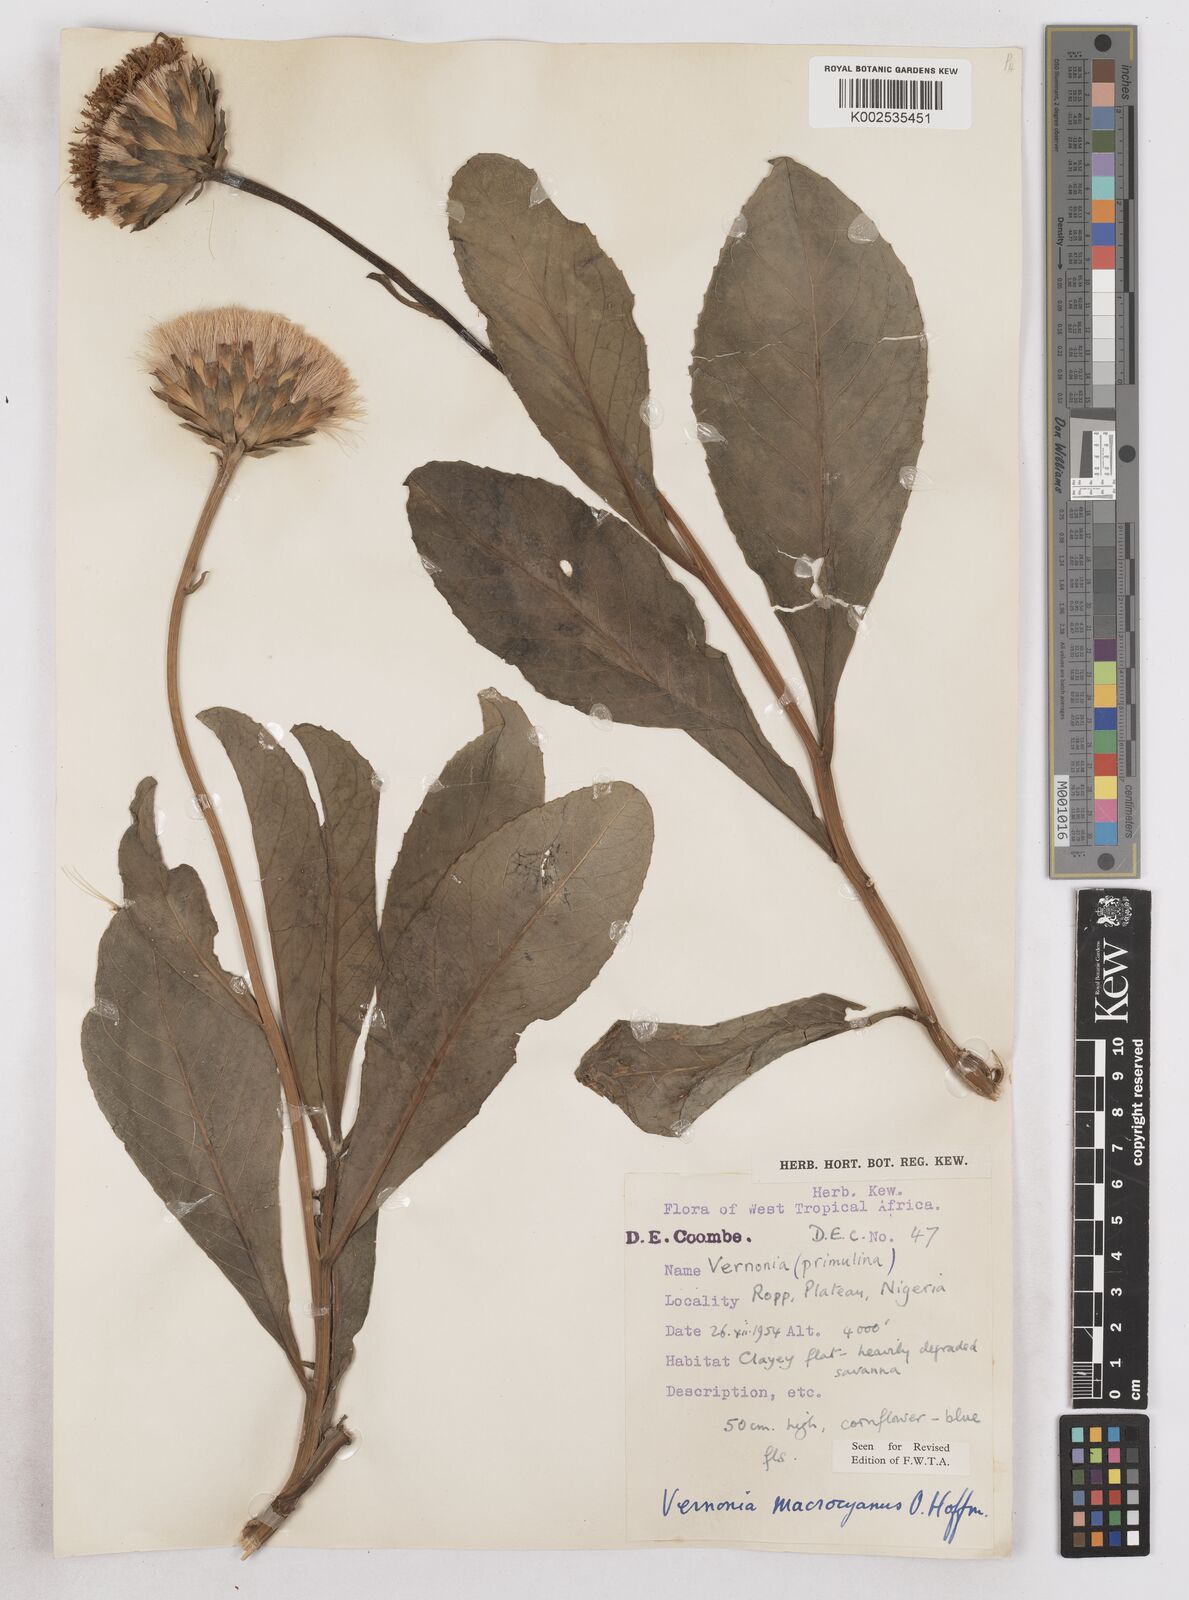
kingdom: Plantae
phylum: Tracheophyta
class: Magnoliopsida
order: Asterales
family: Asteraceae
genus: Linzia
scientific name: Linzia gerberiformis
